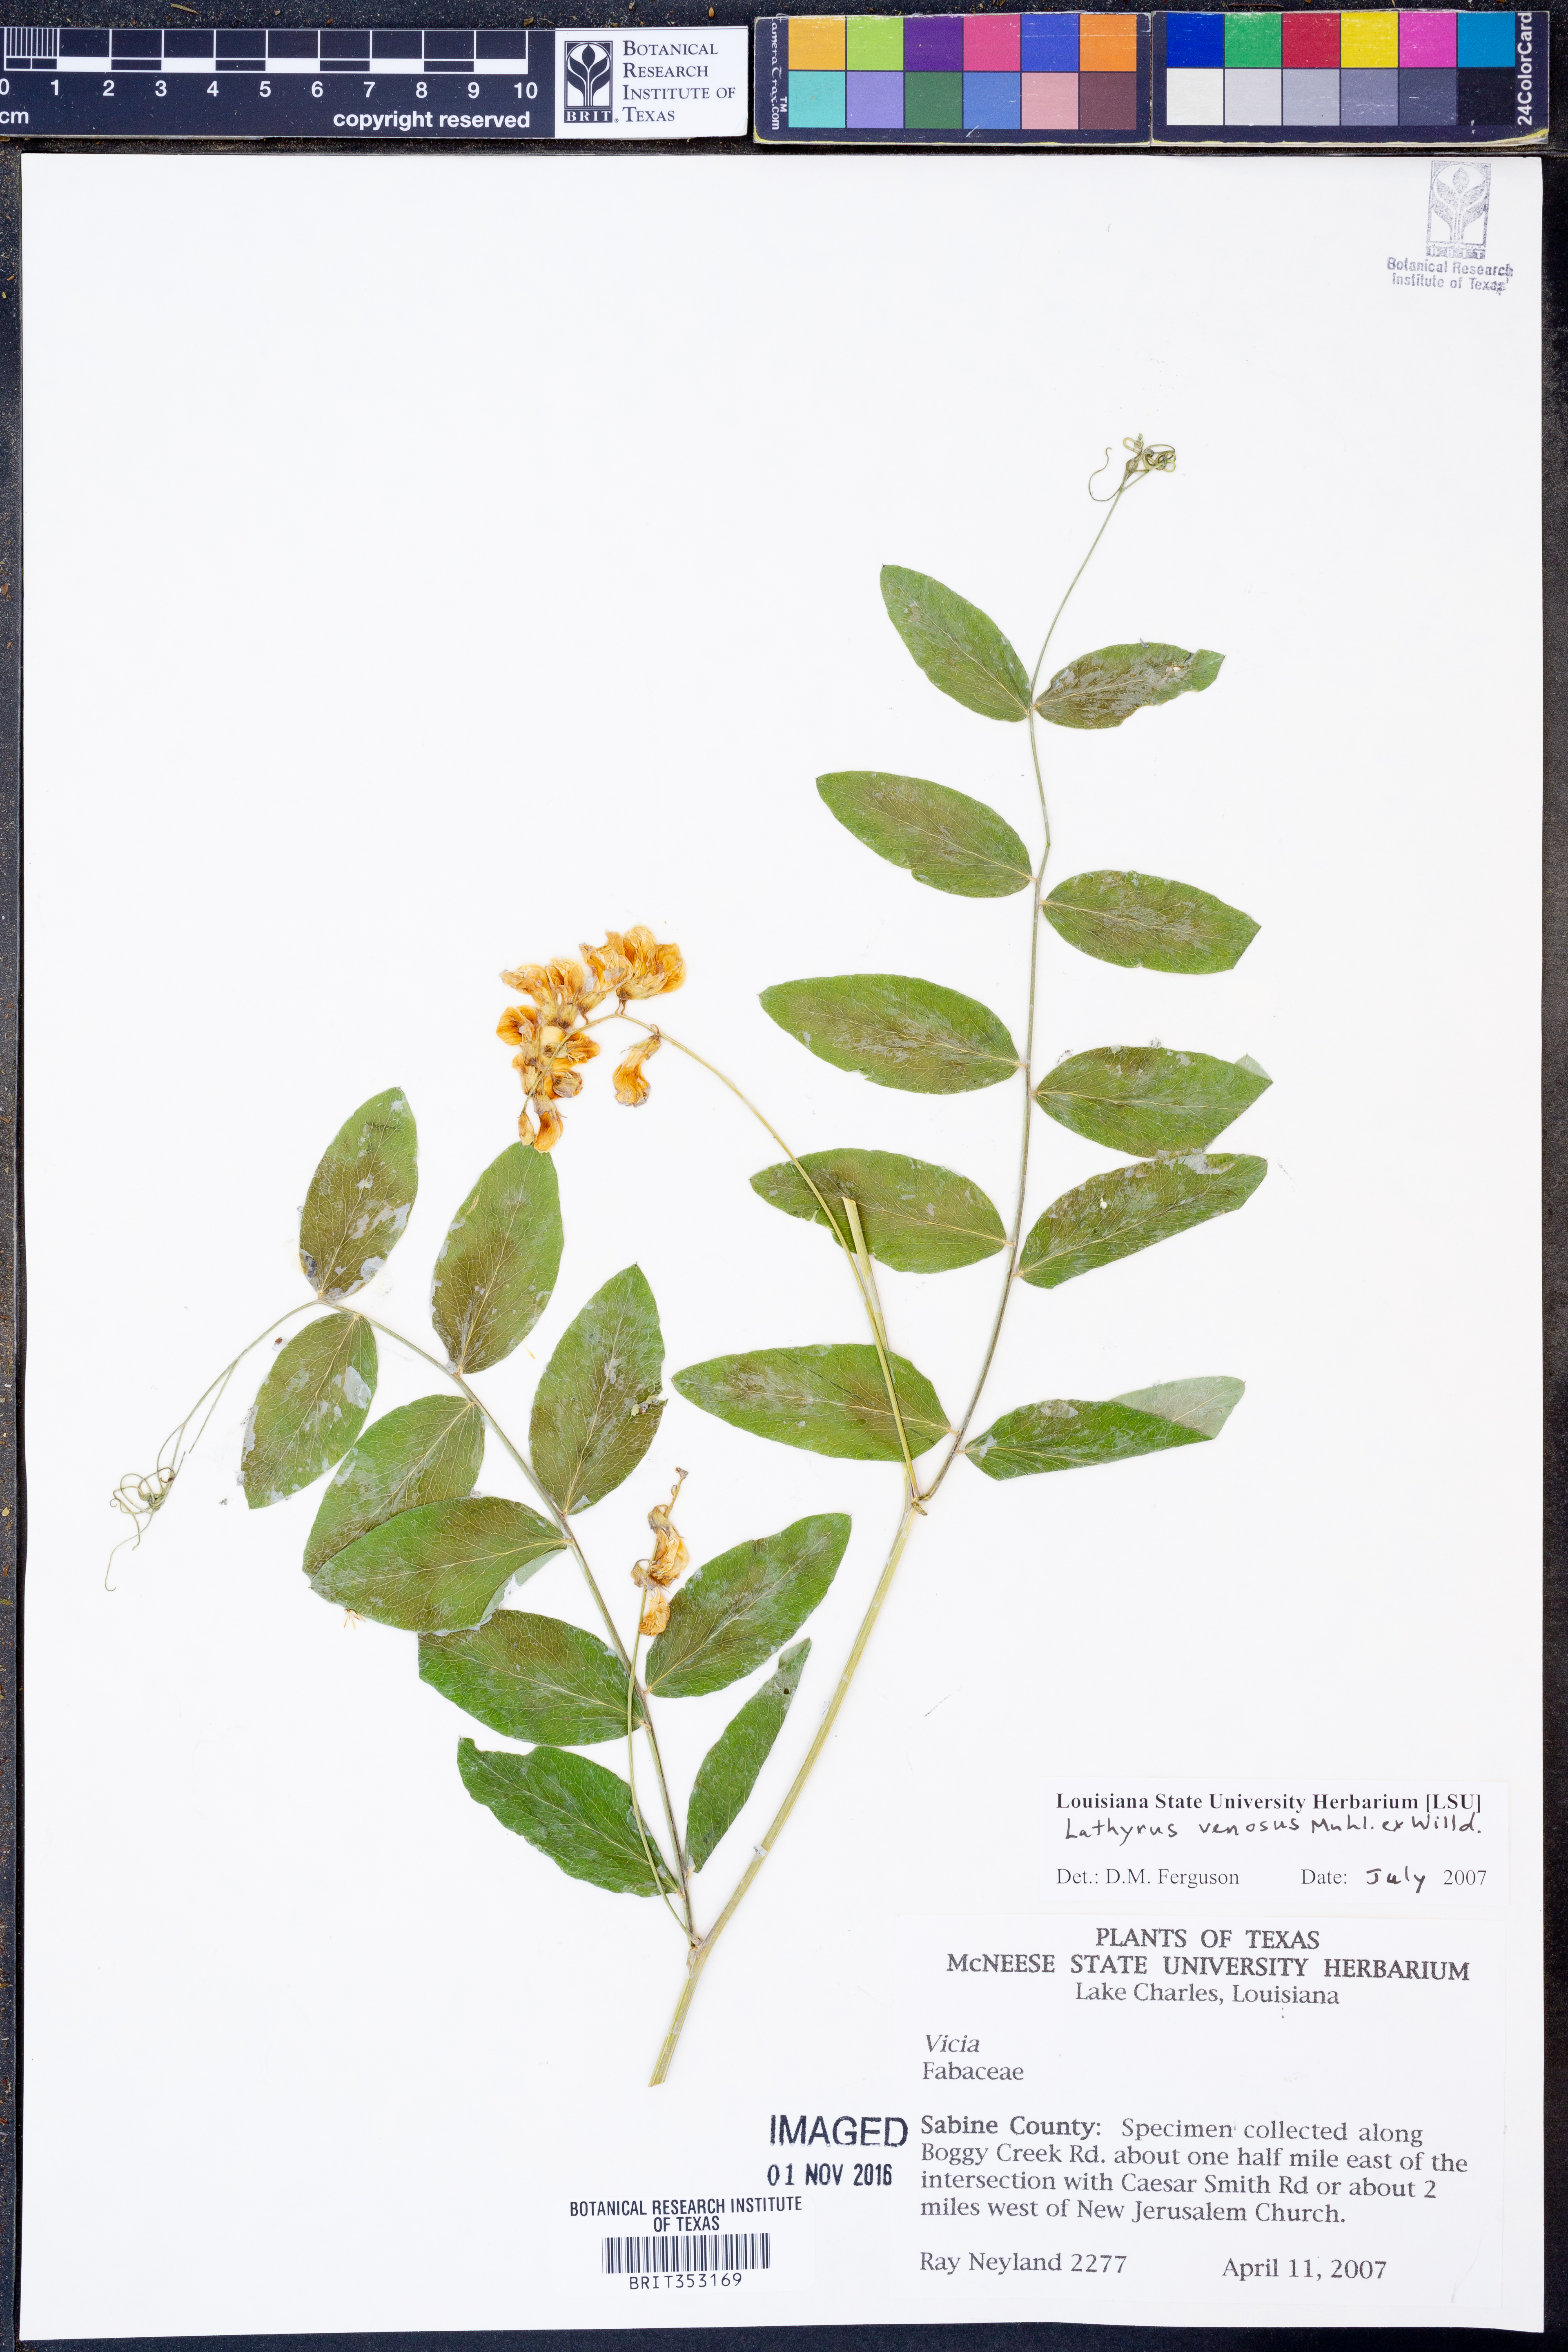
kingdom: Plantae
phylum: Tracheophyta
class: Magnoliopsida
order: Fabales
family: Fabaceae
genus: Lathyrus
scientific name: Lathyrus venosus
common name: Forest-pea
